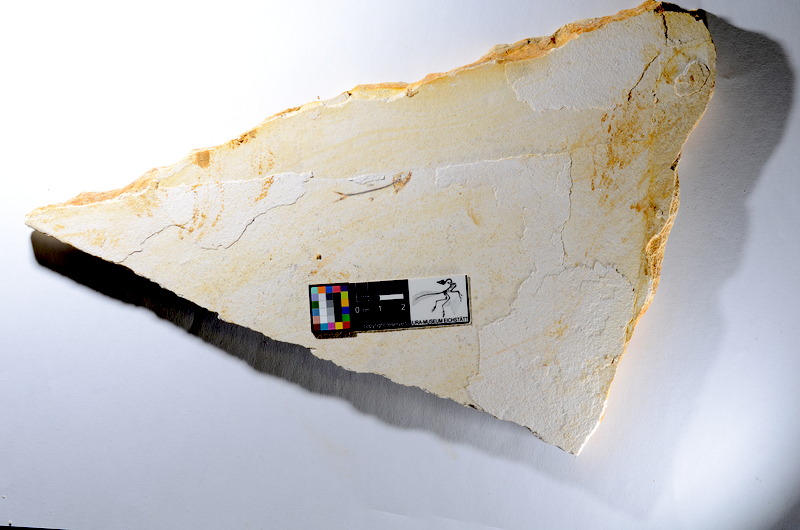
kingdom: Animalia
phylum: Chordata
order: Salmoniformes
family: Orthogonikleithridae
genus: Orthogonikleithrus
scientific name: Orthogonikleithrus hoelli
